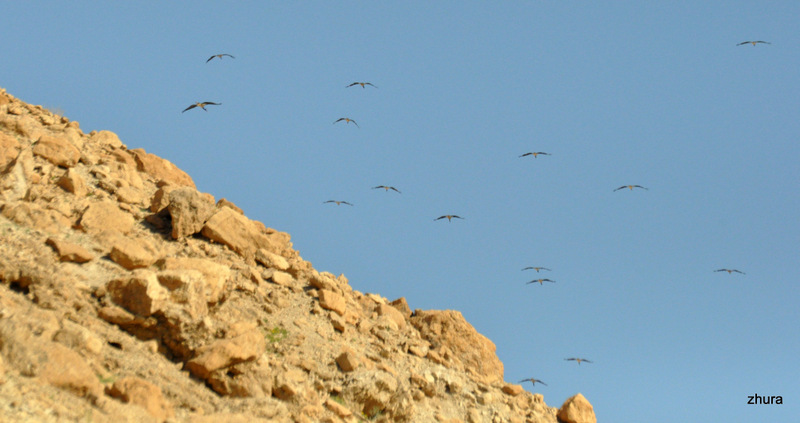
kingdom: Animalia
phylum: Chordata
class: Aves
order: Ciconiiformes
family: Ciconiidae
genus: Ciconia
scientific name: Ciconia nigra
